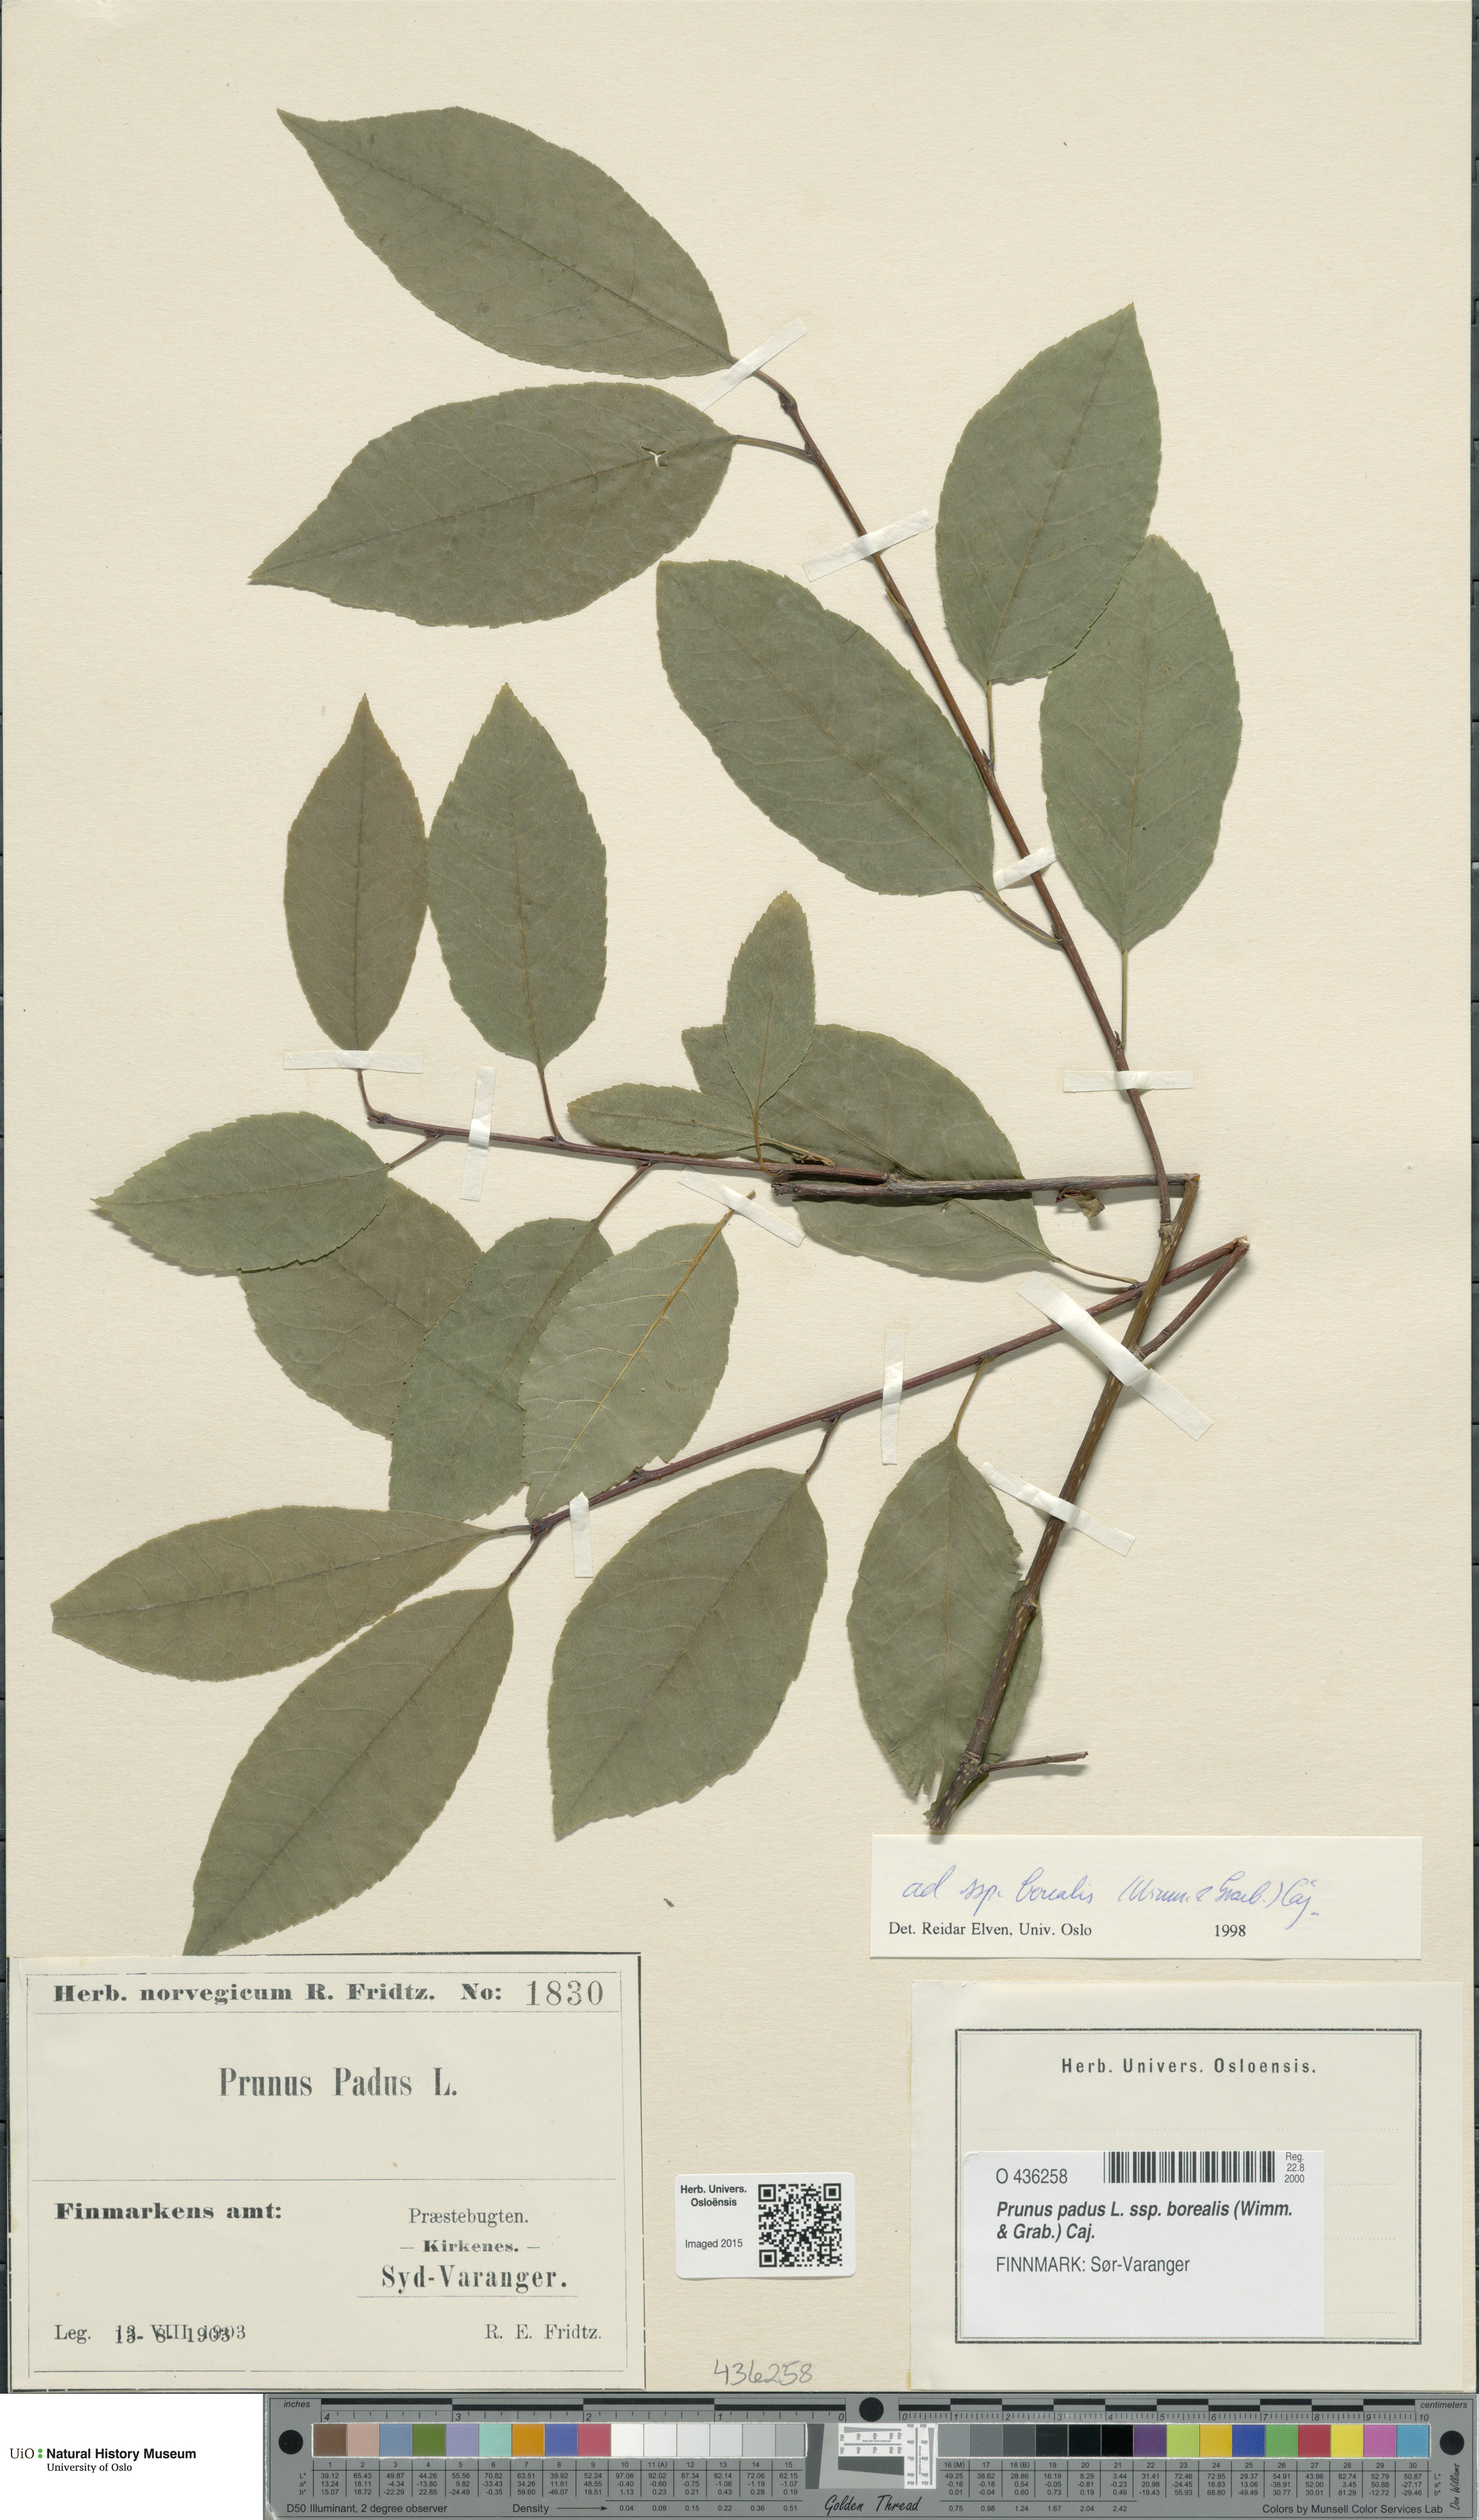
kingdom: Plantae
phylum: Tracheophyta
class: Magnoliopsida
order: Rosales
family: Rosaceae
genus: Prunus
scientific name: Prunus padus
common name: Bird cherry
